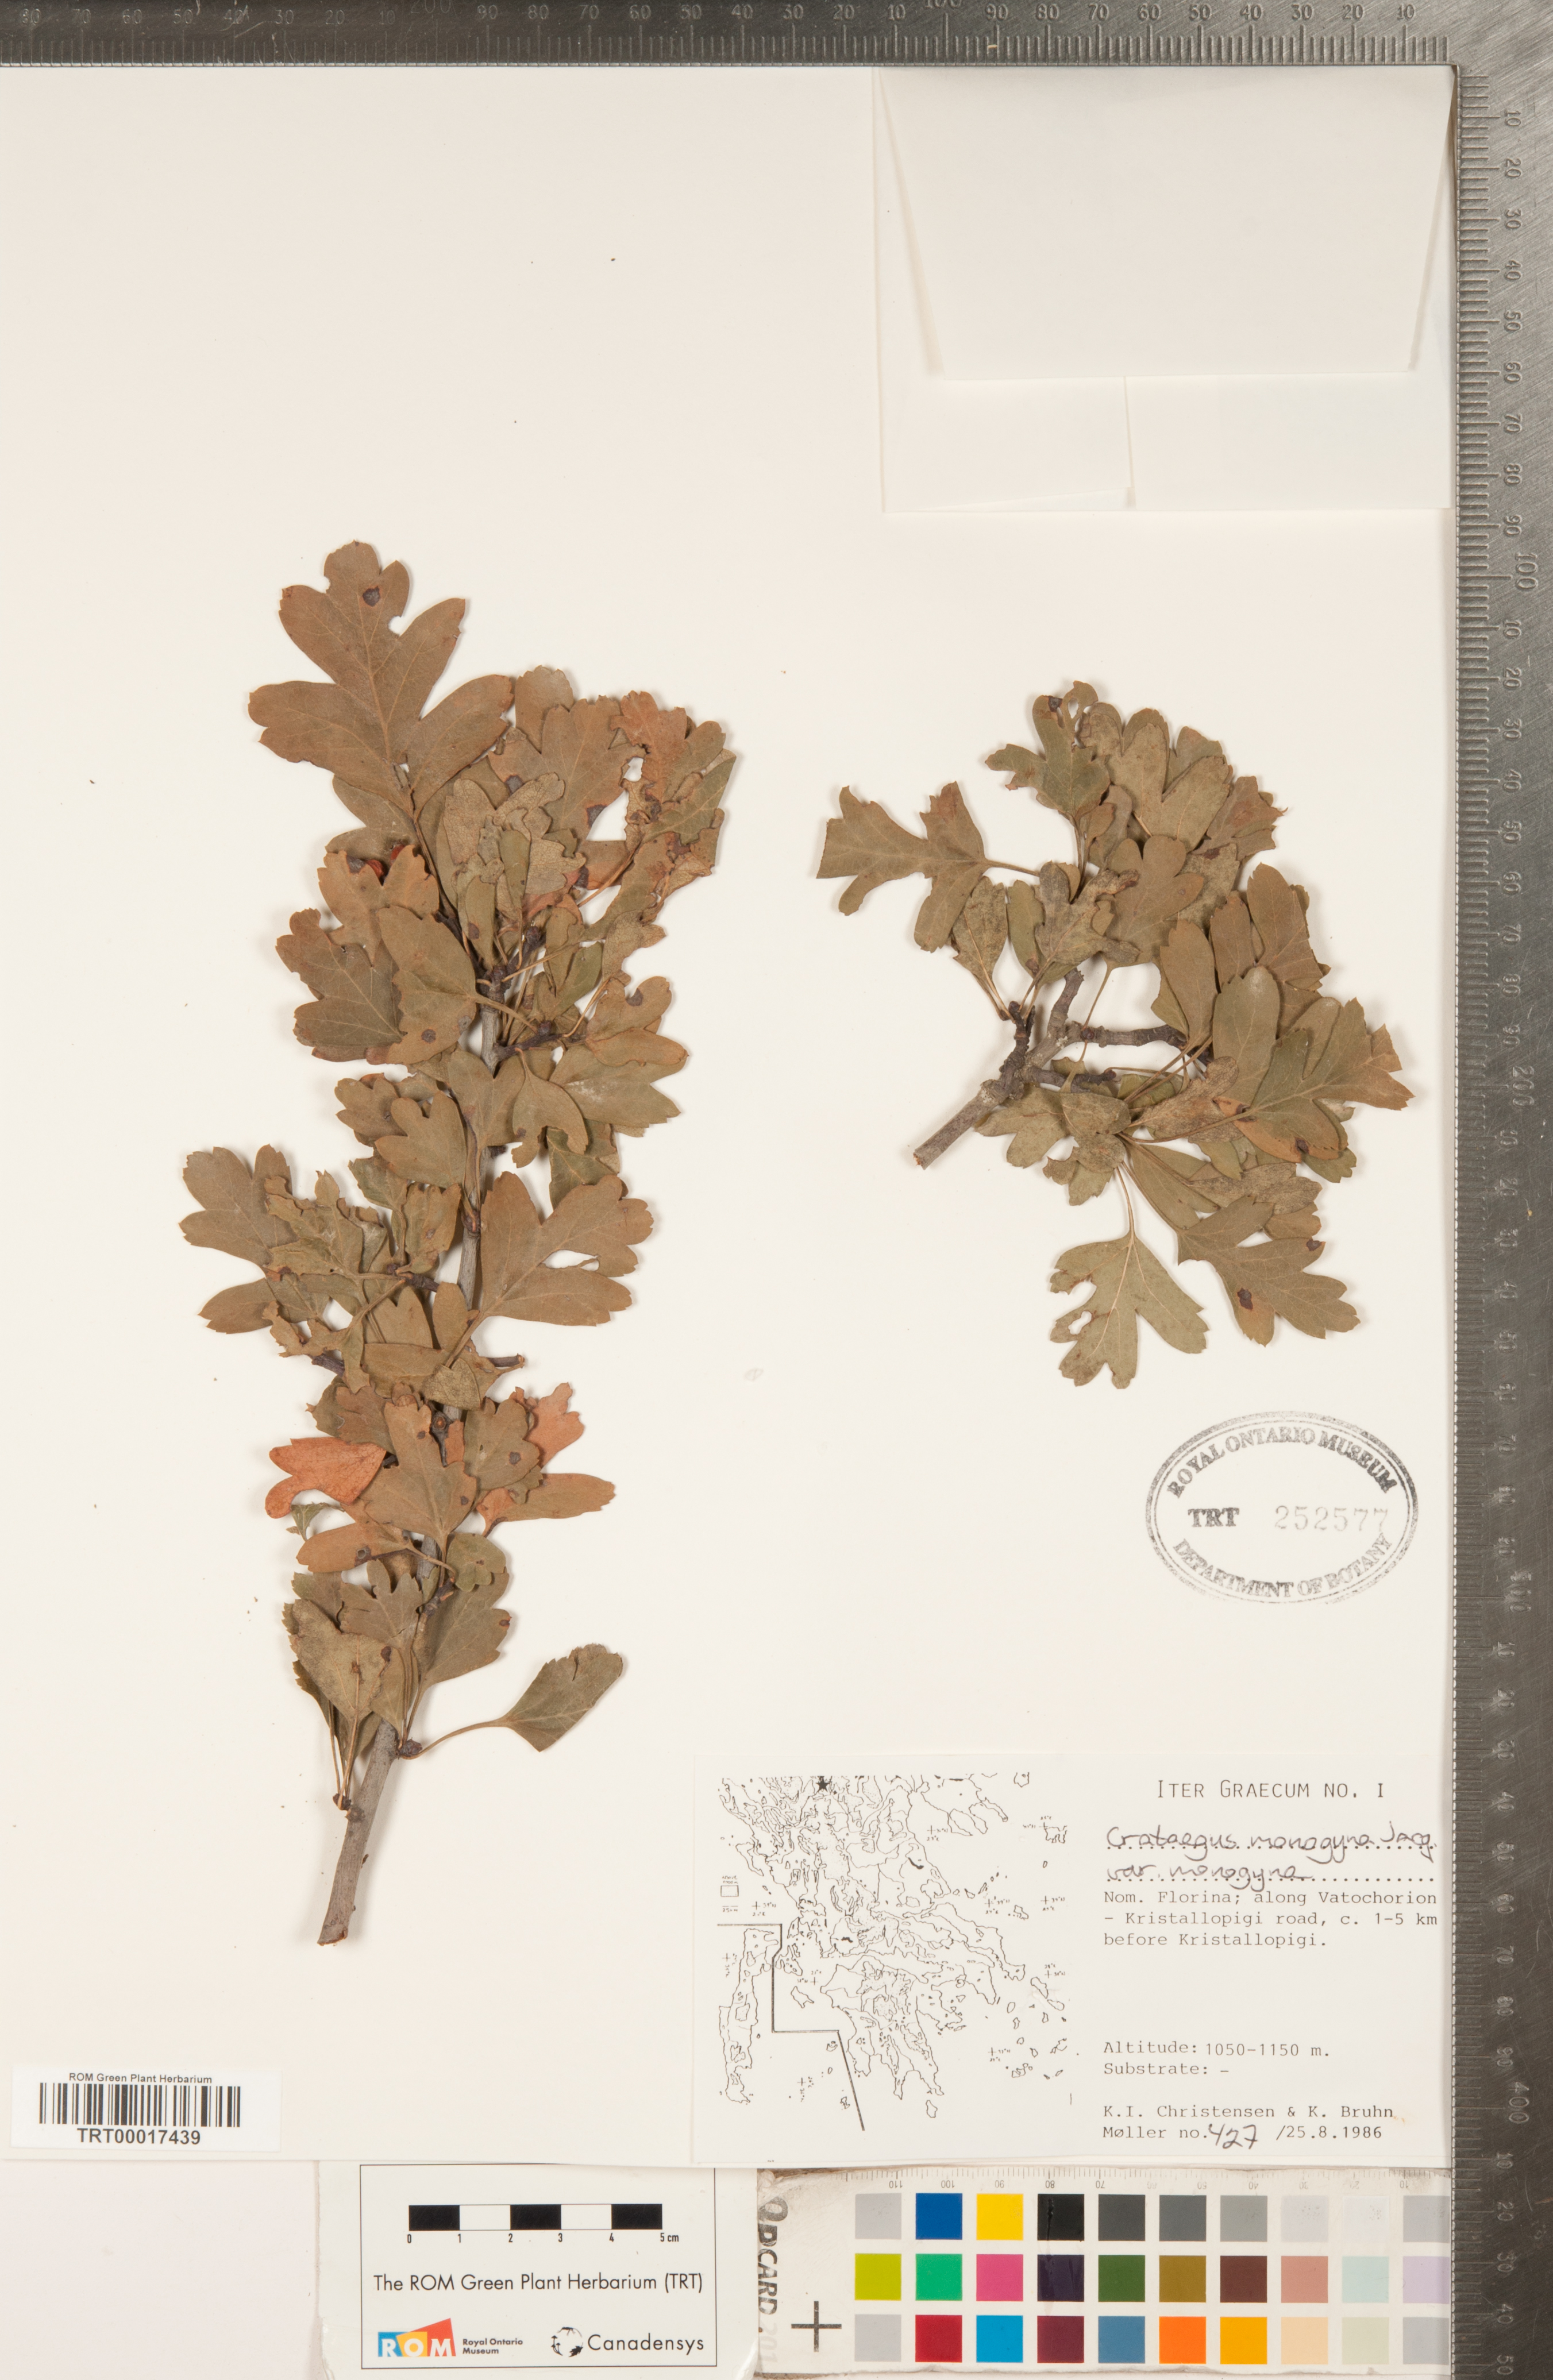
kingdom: Plantae
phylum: Tracheophyta
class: Magnoliopsida
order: Rosales
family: Rosaceae
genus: Crataegus
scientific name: Crataegus monogyna
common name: Hawthorn
